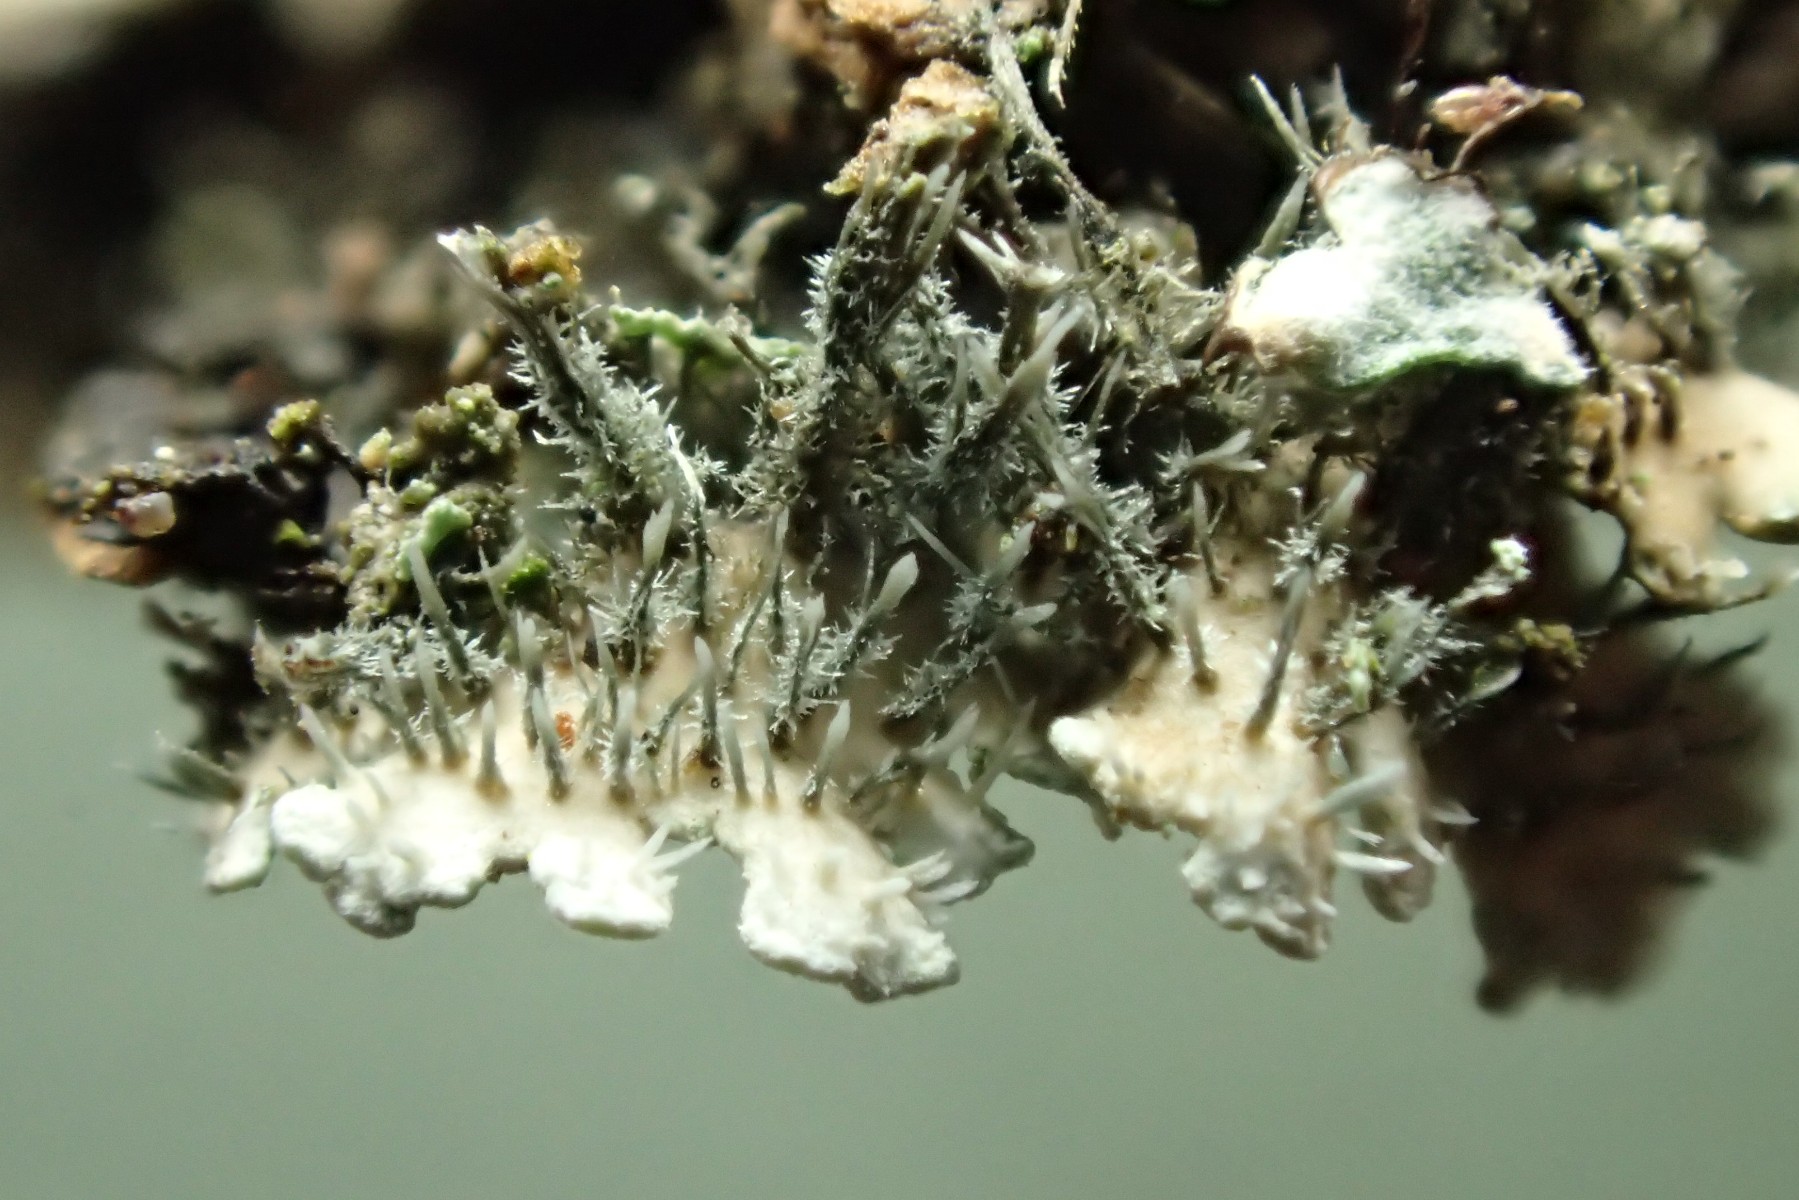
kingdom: Fungi
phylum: Ascomycota
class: Lecanoromycetes
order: Caliciales
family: Physciaceae
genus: Physconia
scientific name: Physconia enteroxantha
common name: grynet dugrosetlav
